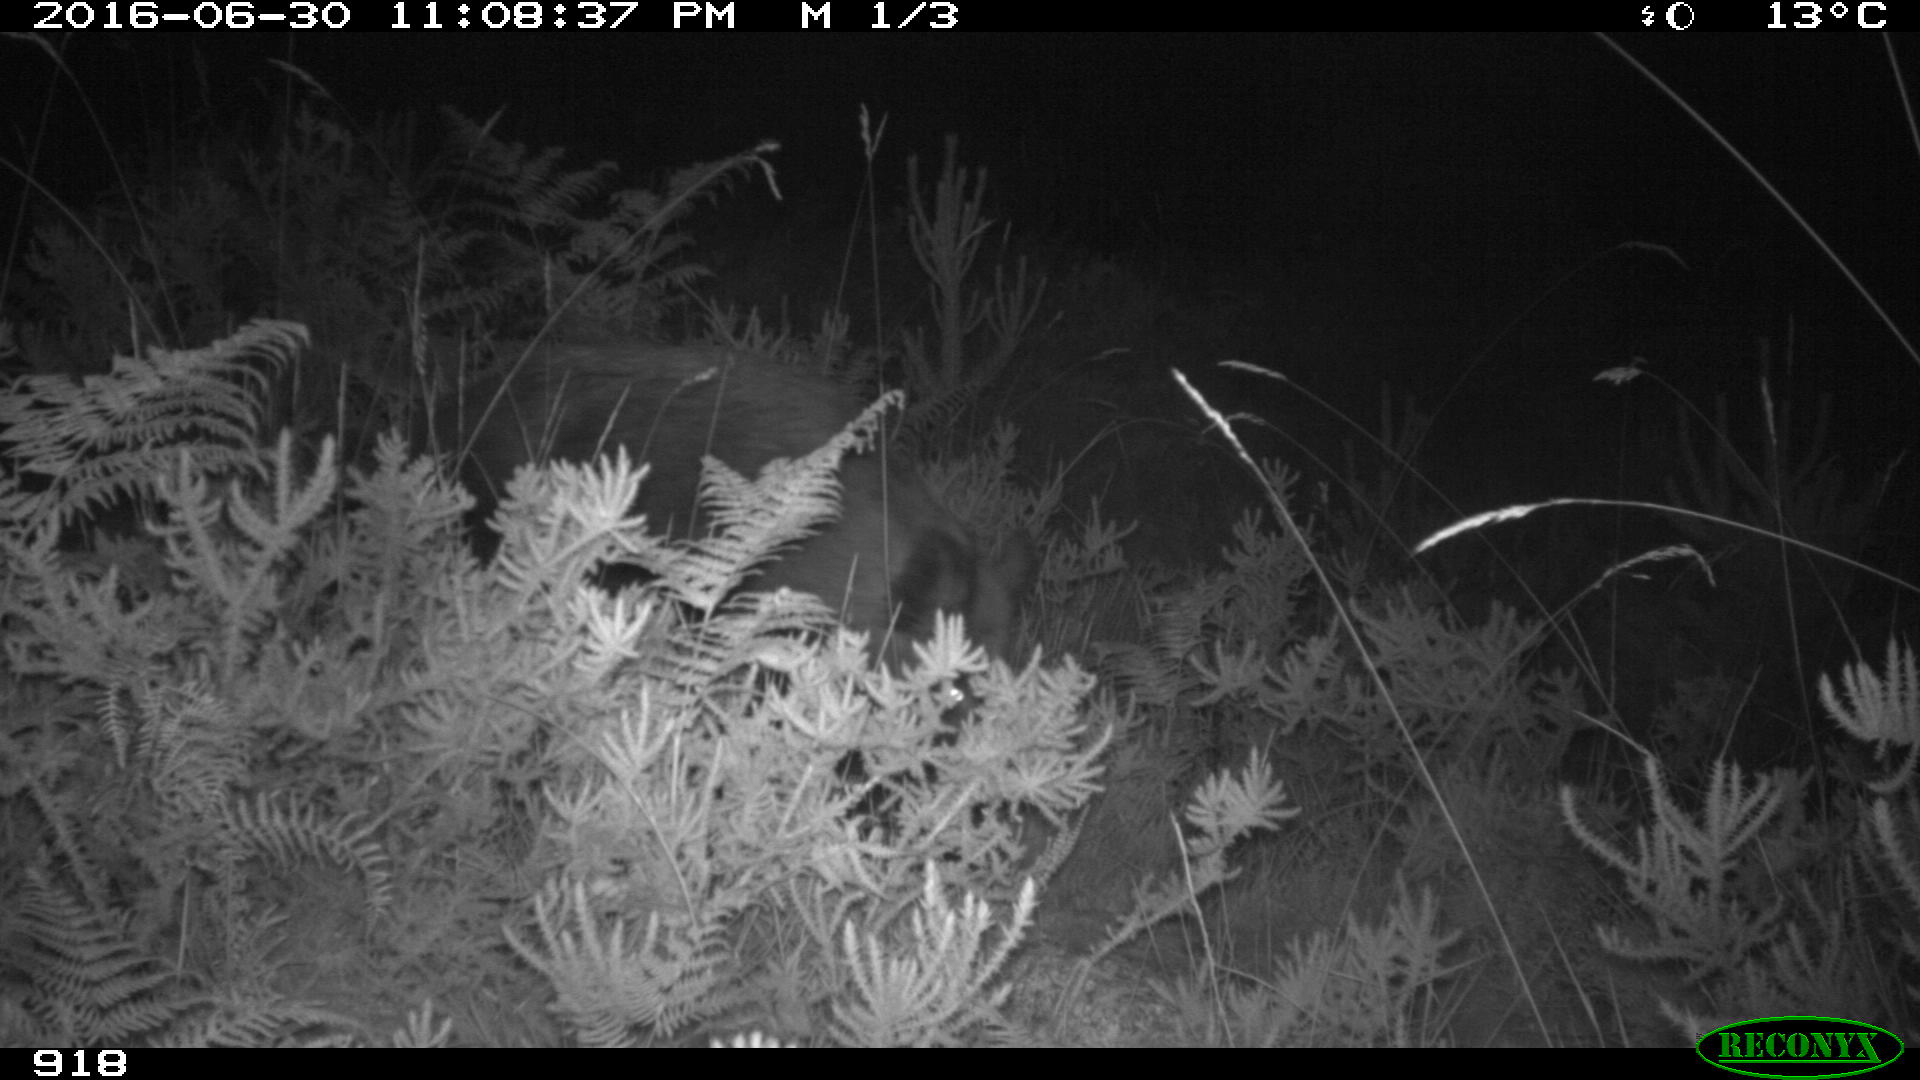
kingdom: Animalia
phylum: Chordata
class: Mammalia
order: Artiodactyla
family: Suidae
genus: Sus
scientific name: Sus scrofa
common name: Wild boar
